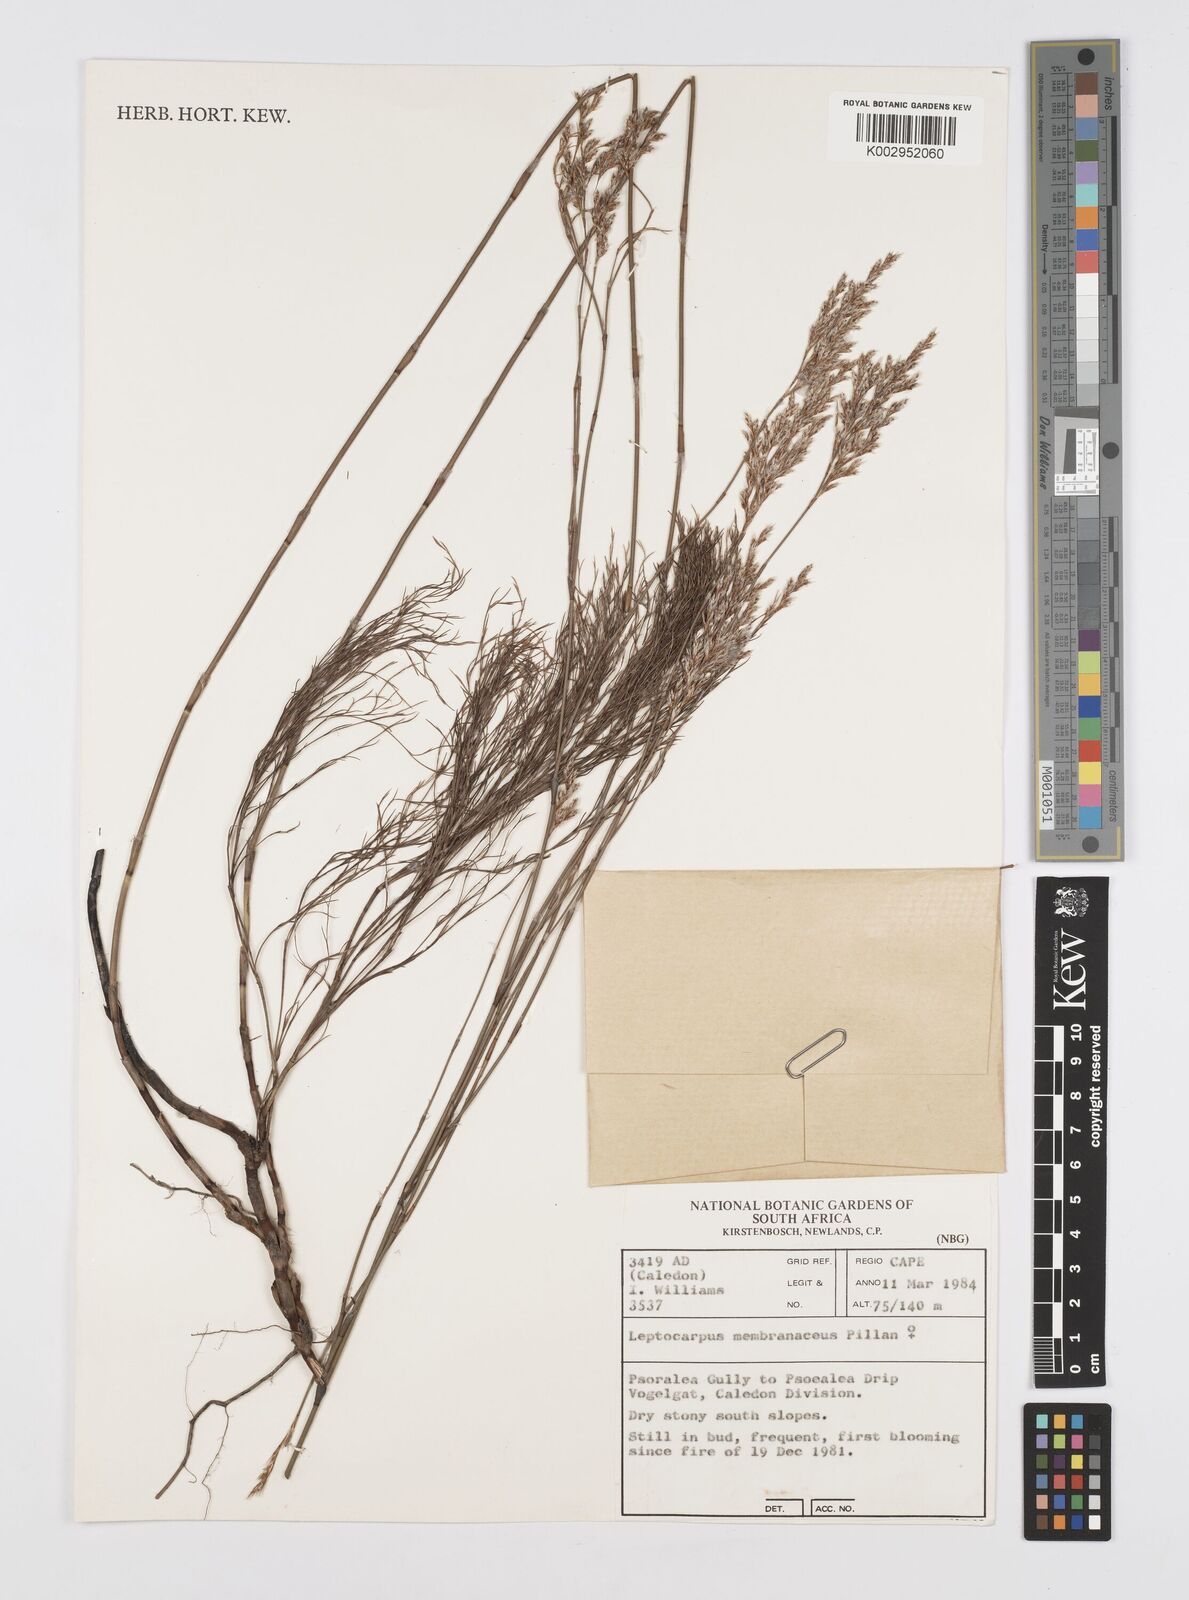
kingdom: Plantae
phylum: Tracheophyta
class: Liliopsida
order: Poales
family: Restionaceae
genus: Elegia
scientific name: Elegia intermedia
